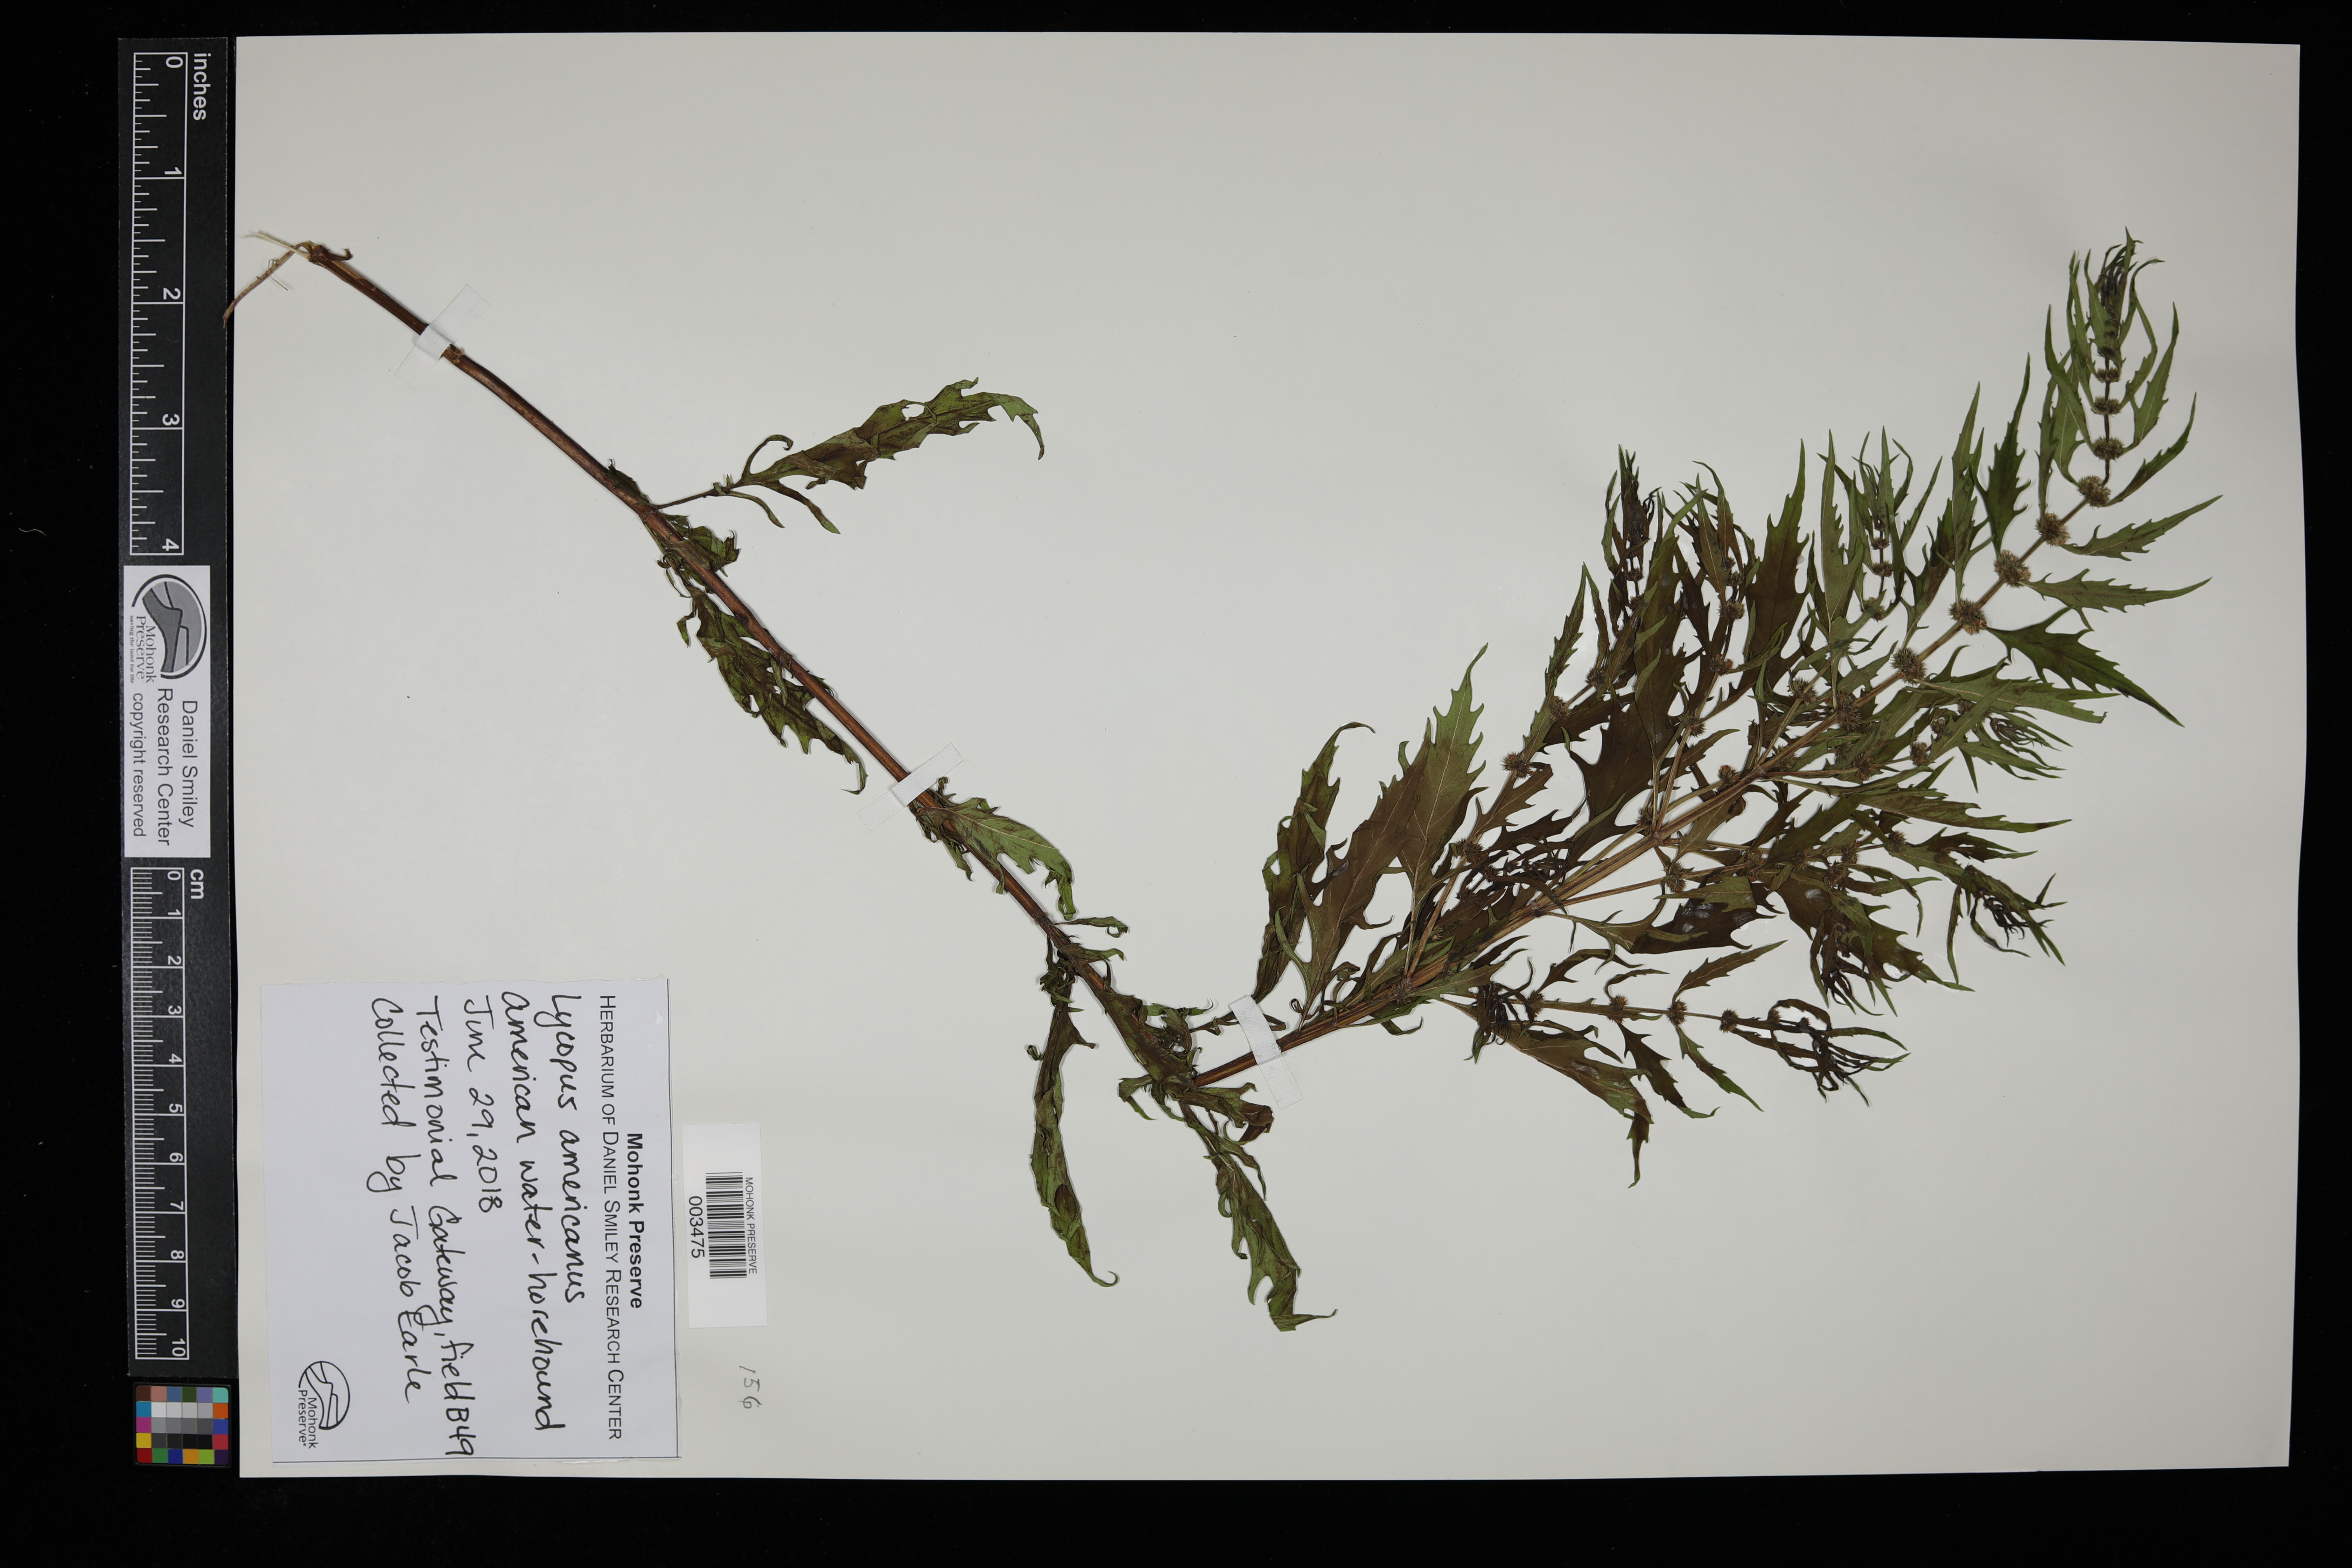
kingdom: Plantae
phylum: Tracheophyta
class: Magnoliopsida
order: Lamiales
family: Lamiaceae
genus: Lycopus
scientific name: Lycopus americanus
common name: American bugleweed
